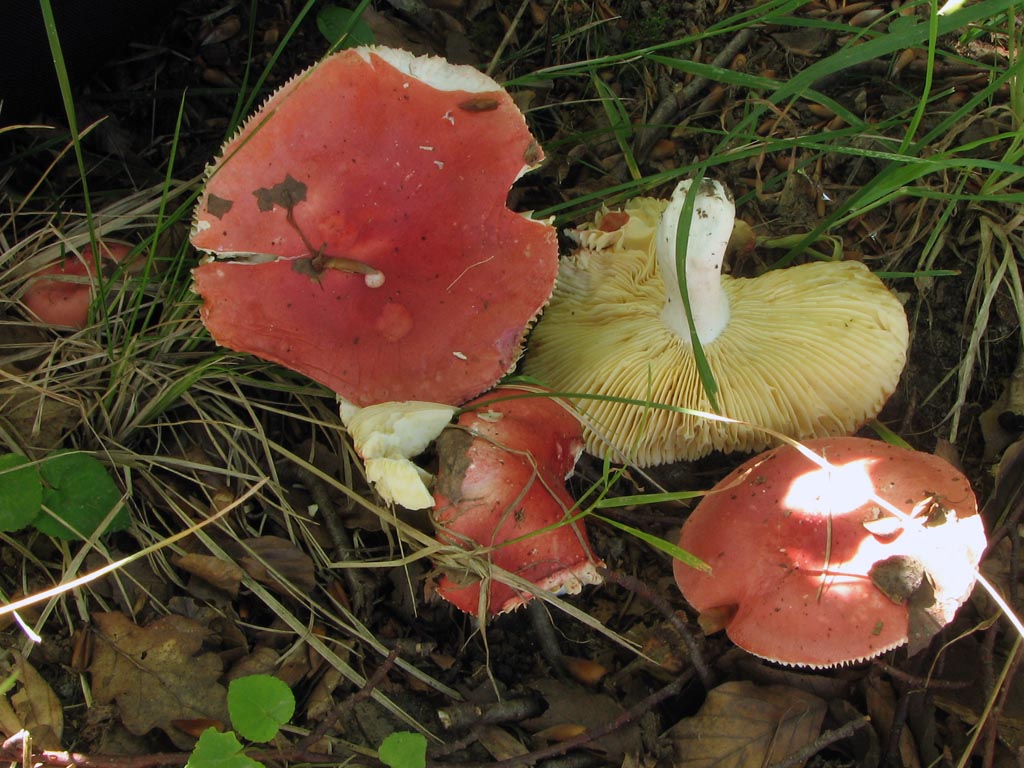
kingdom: Fungi
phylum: Basidiomycota
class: Agaricomycetes
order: Russulales
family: Russulaceae
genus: Russula
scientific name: Russula pseudointegra
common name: cinnoberrød skørhat
